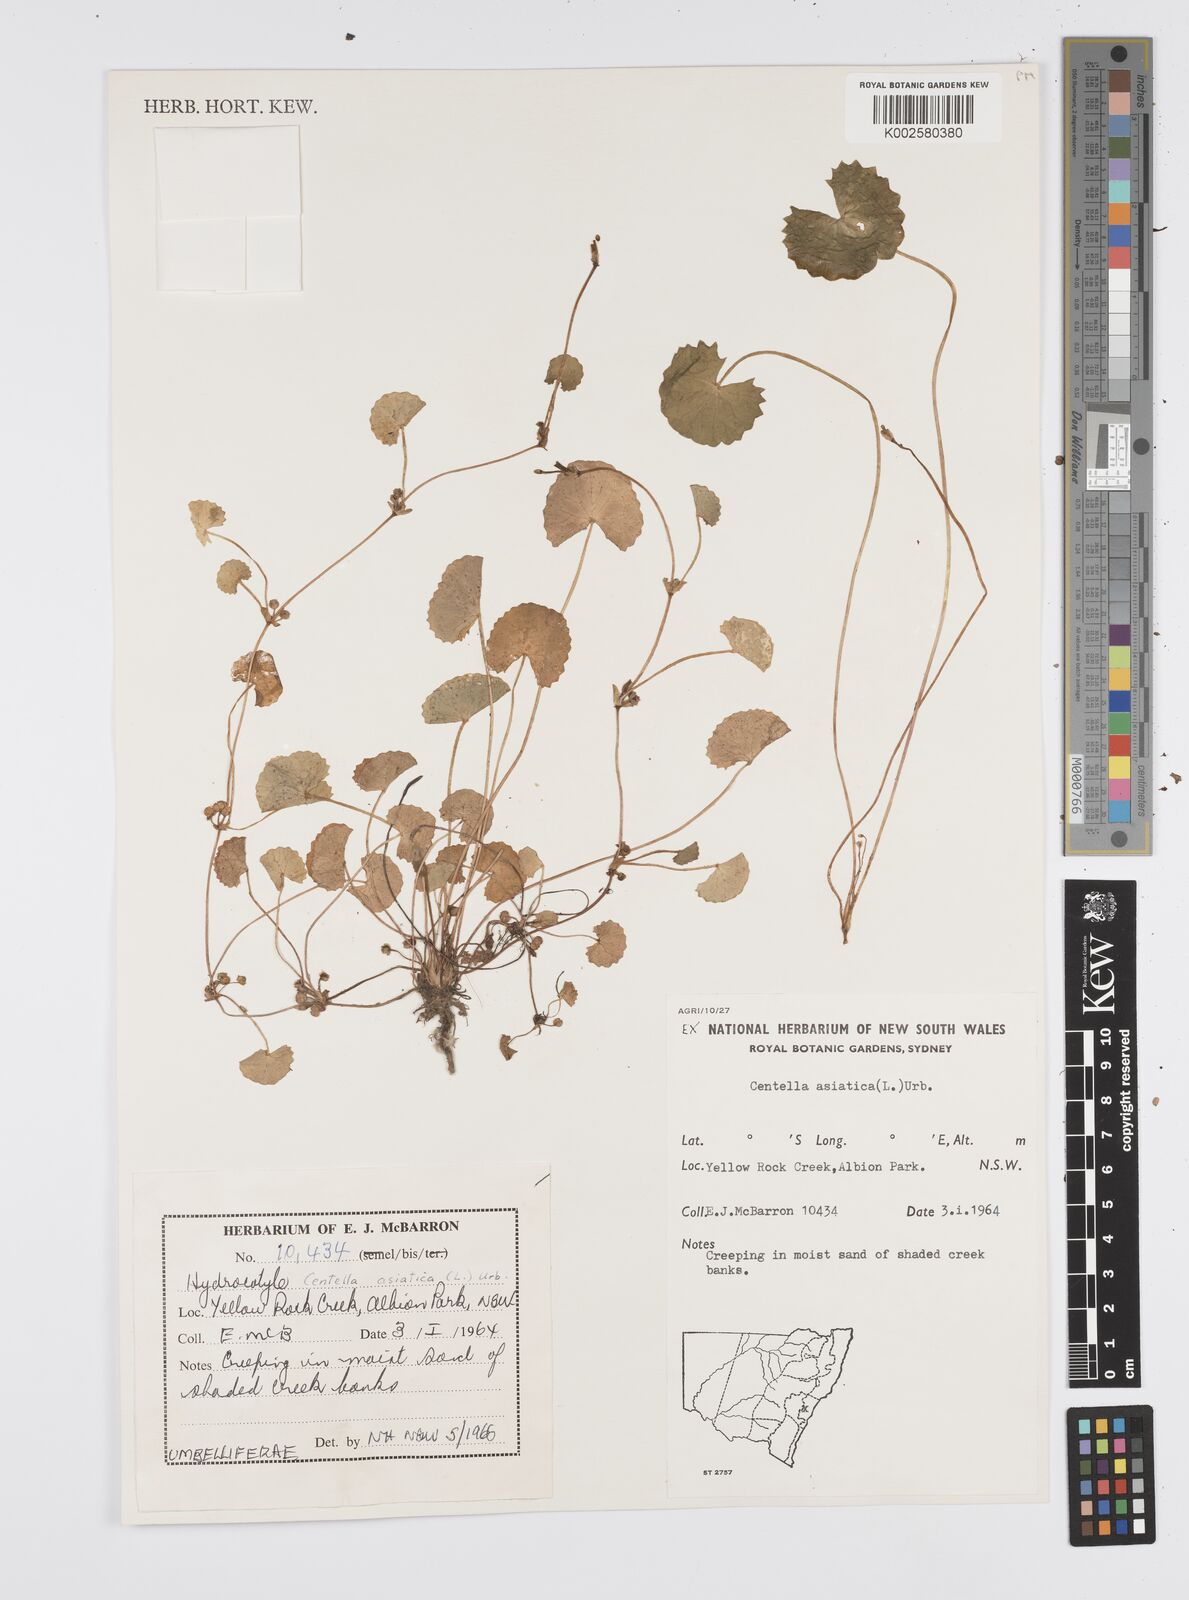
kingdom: Plantae
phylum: Tracheophyta
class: Magnoliopsida
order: Apiales
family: Apiaceae
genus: Centella
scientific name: Centella asiatica
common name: Spadeleaf
